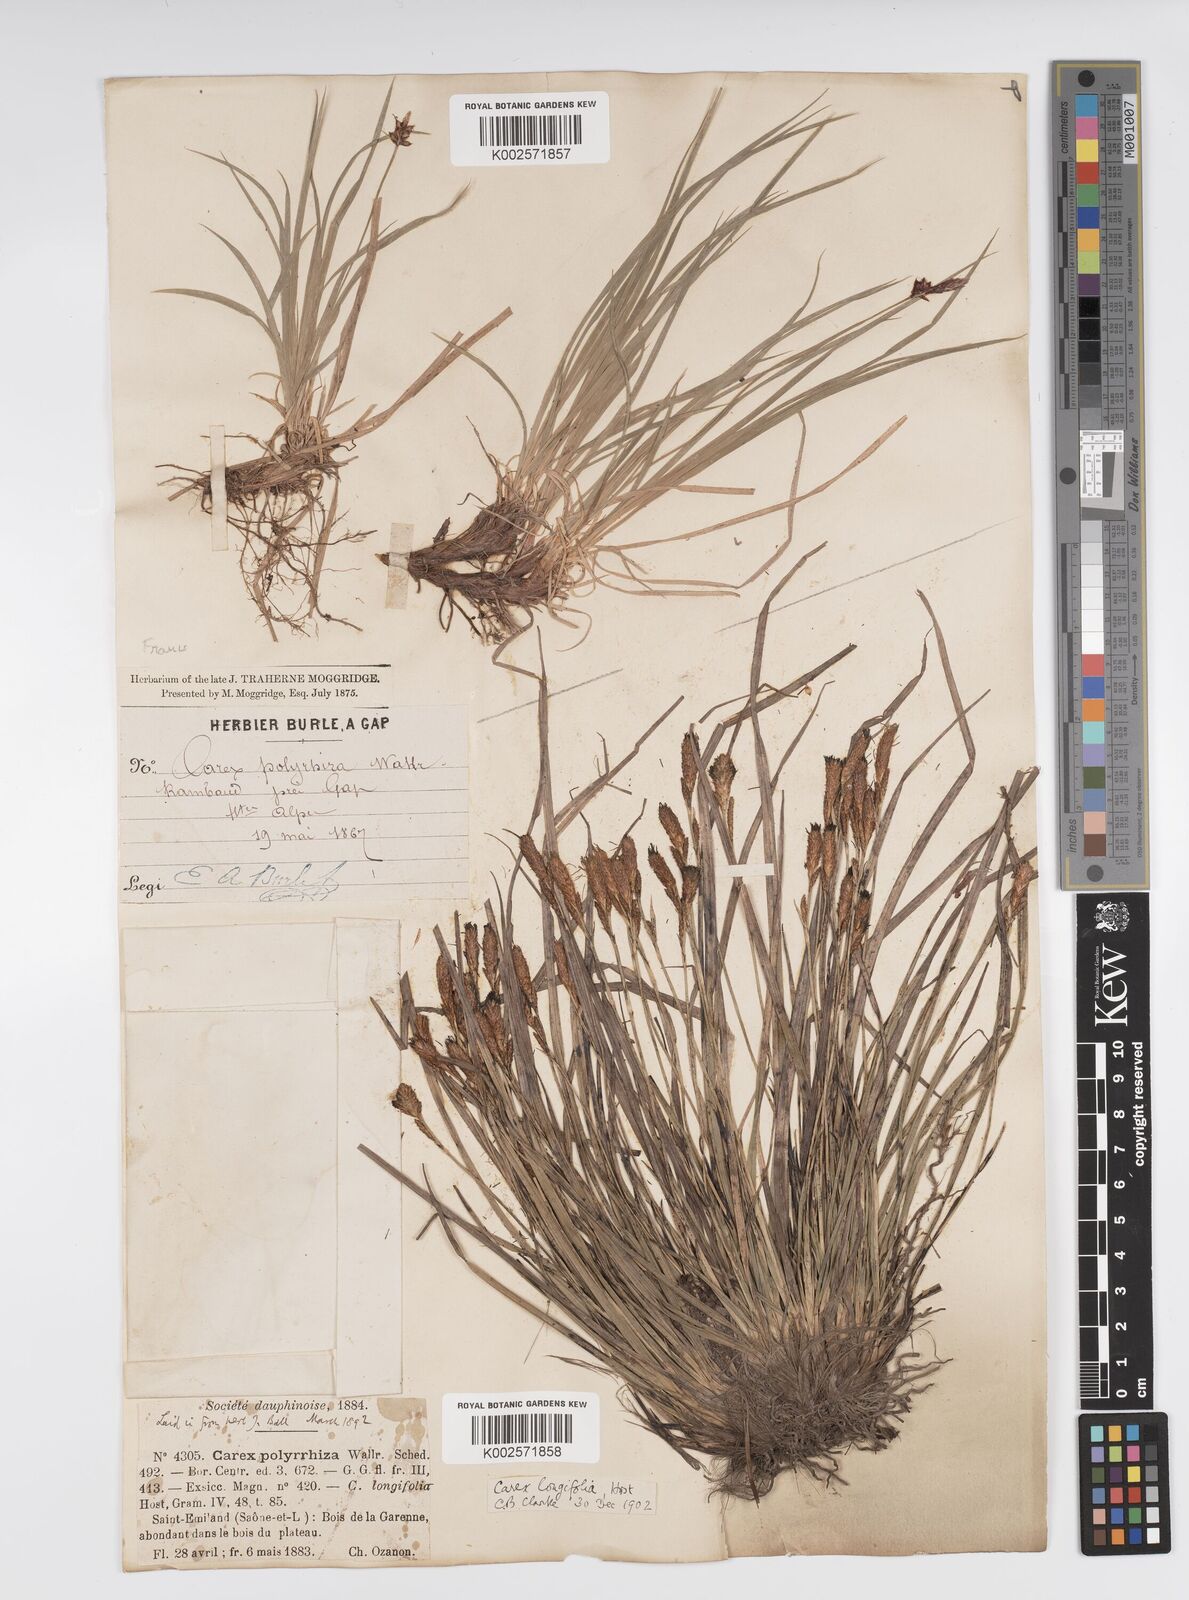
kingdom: Plantae
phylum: Tracheophyta
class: Liliopsida
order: Poales
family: Cyperaceae
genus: Carex
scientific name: Carex umbrosa
